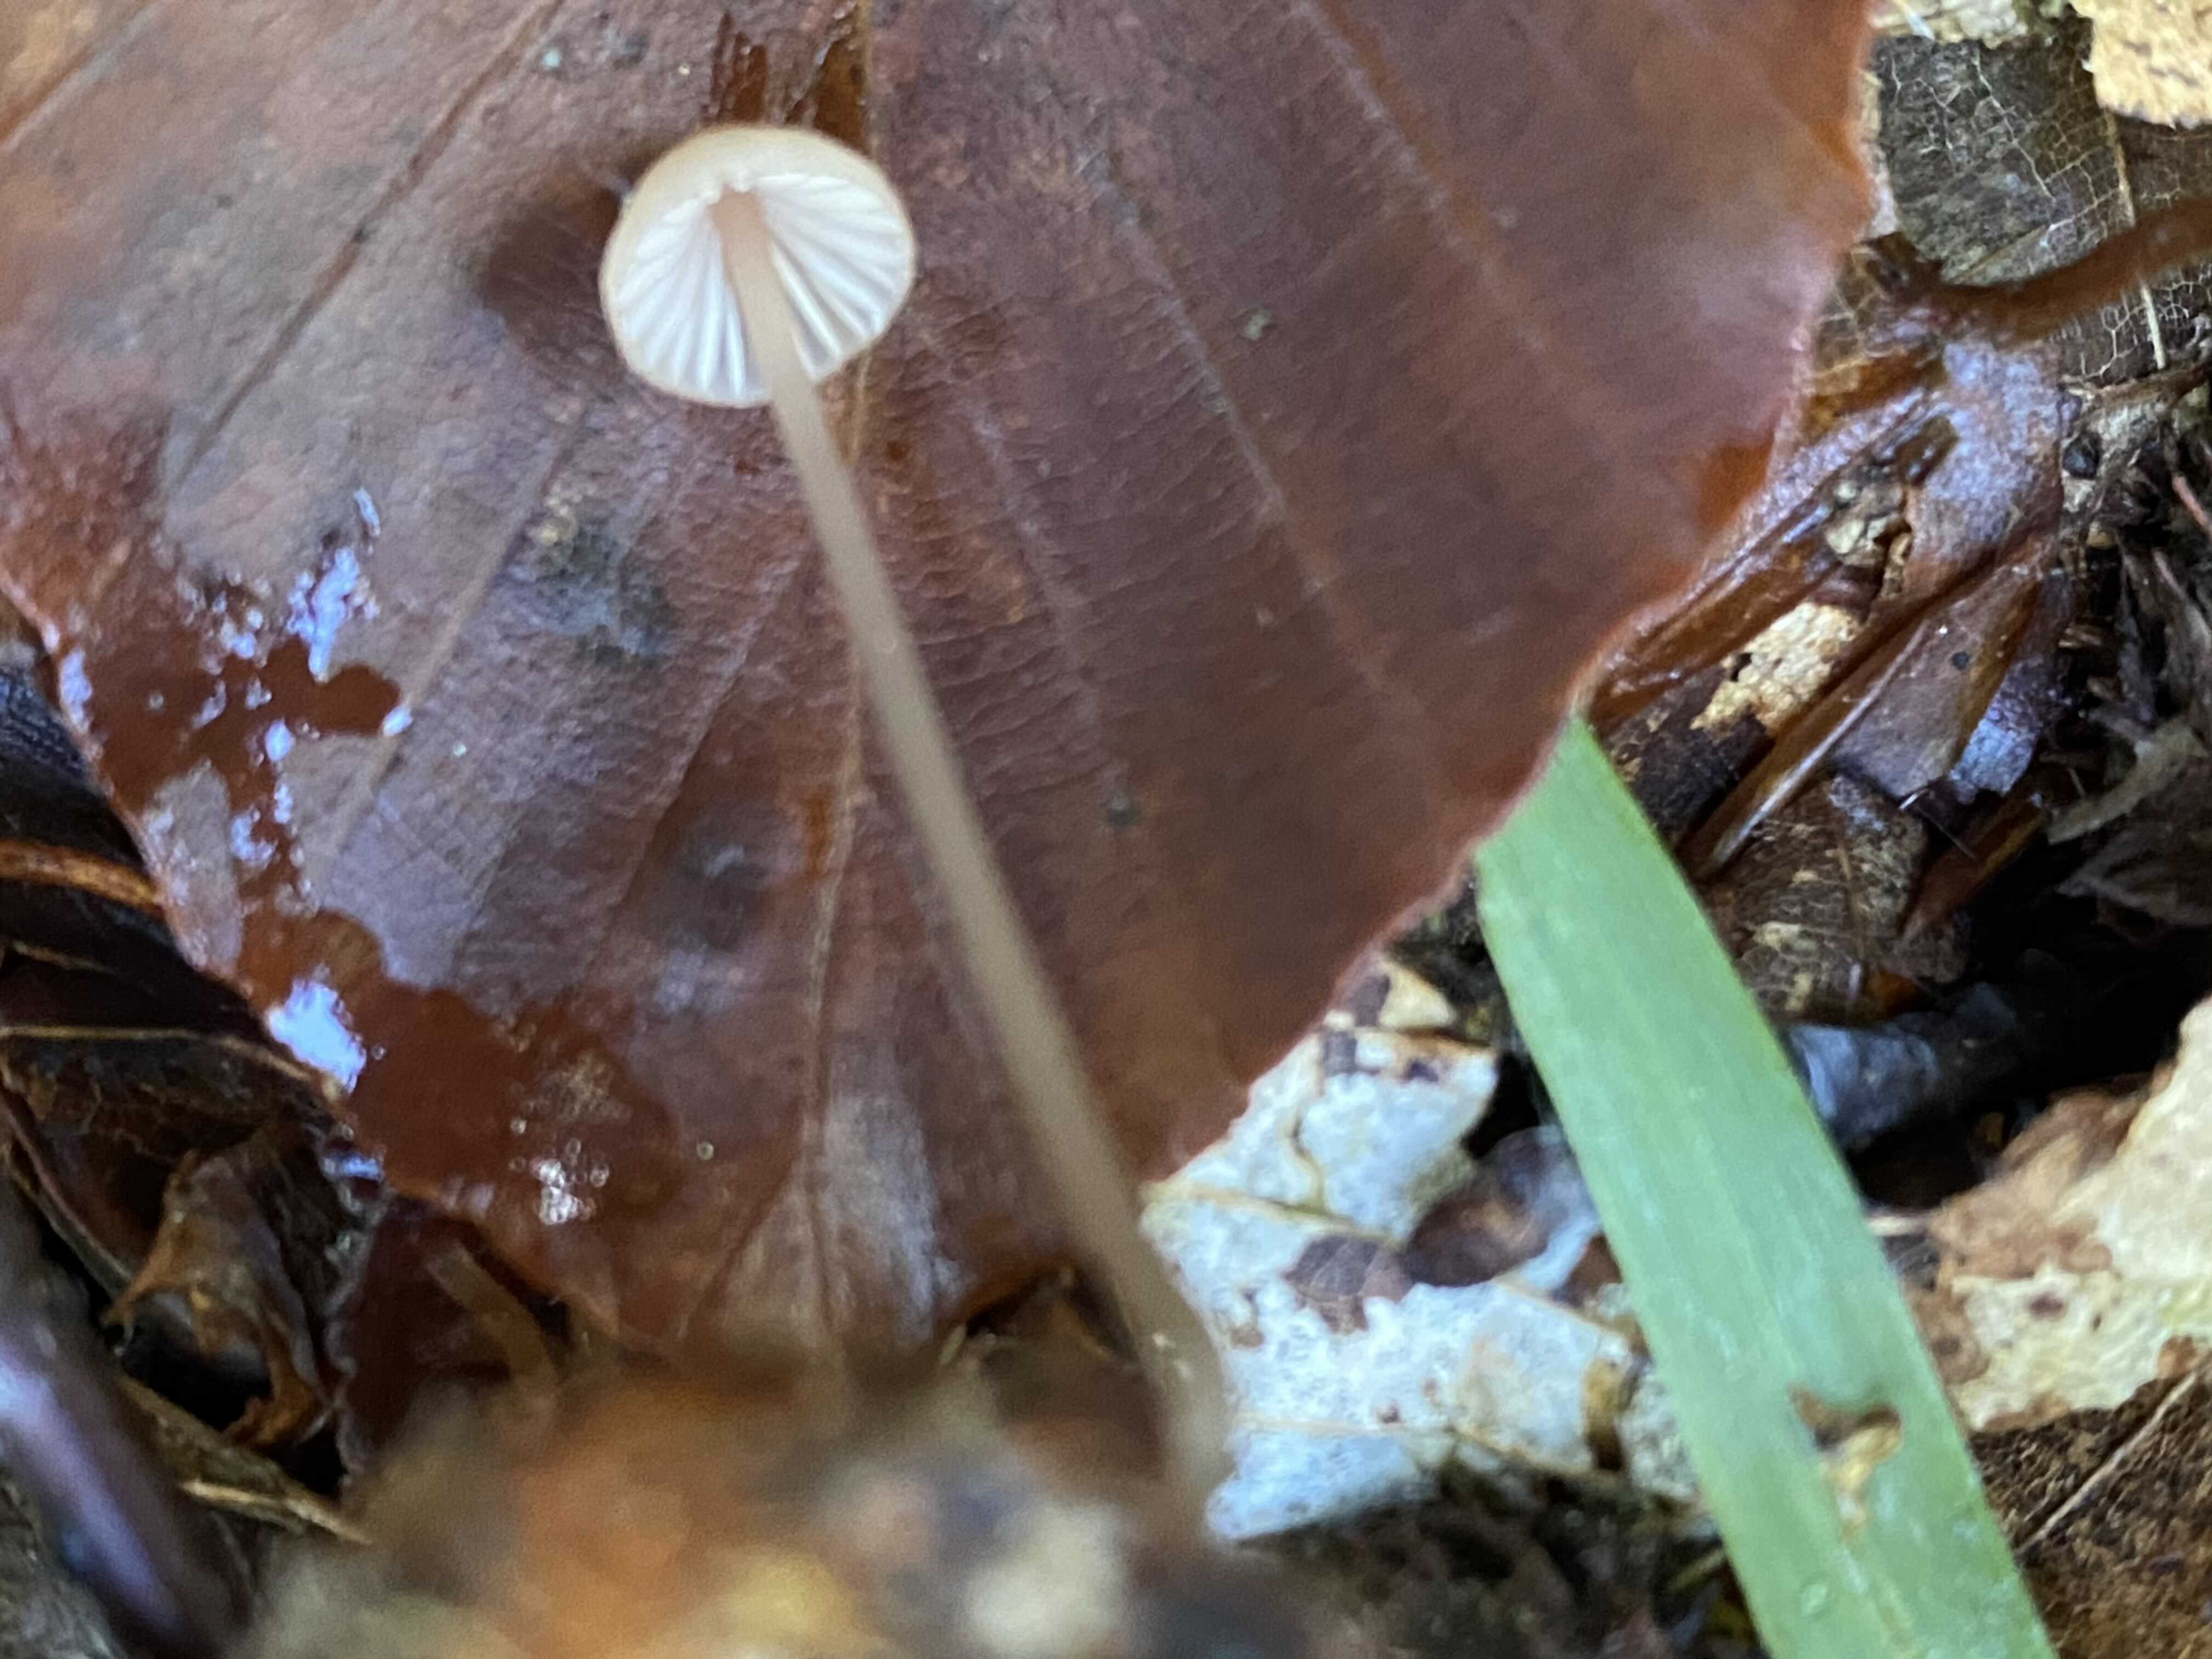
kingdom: Fungi
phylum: Basidiomycota
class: Agaricomycetes
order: Agaricales
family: Mycenaceae
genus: Mycena
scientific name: Mycena sanguinolenta
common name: rødmælket huesvamp
